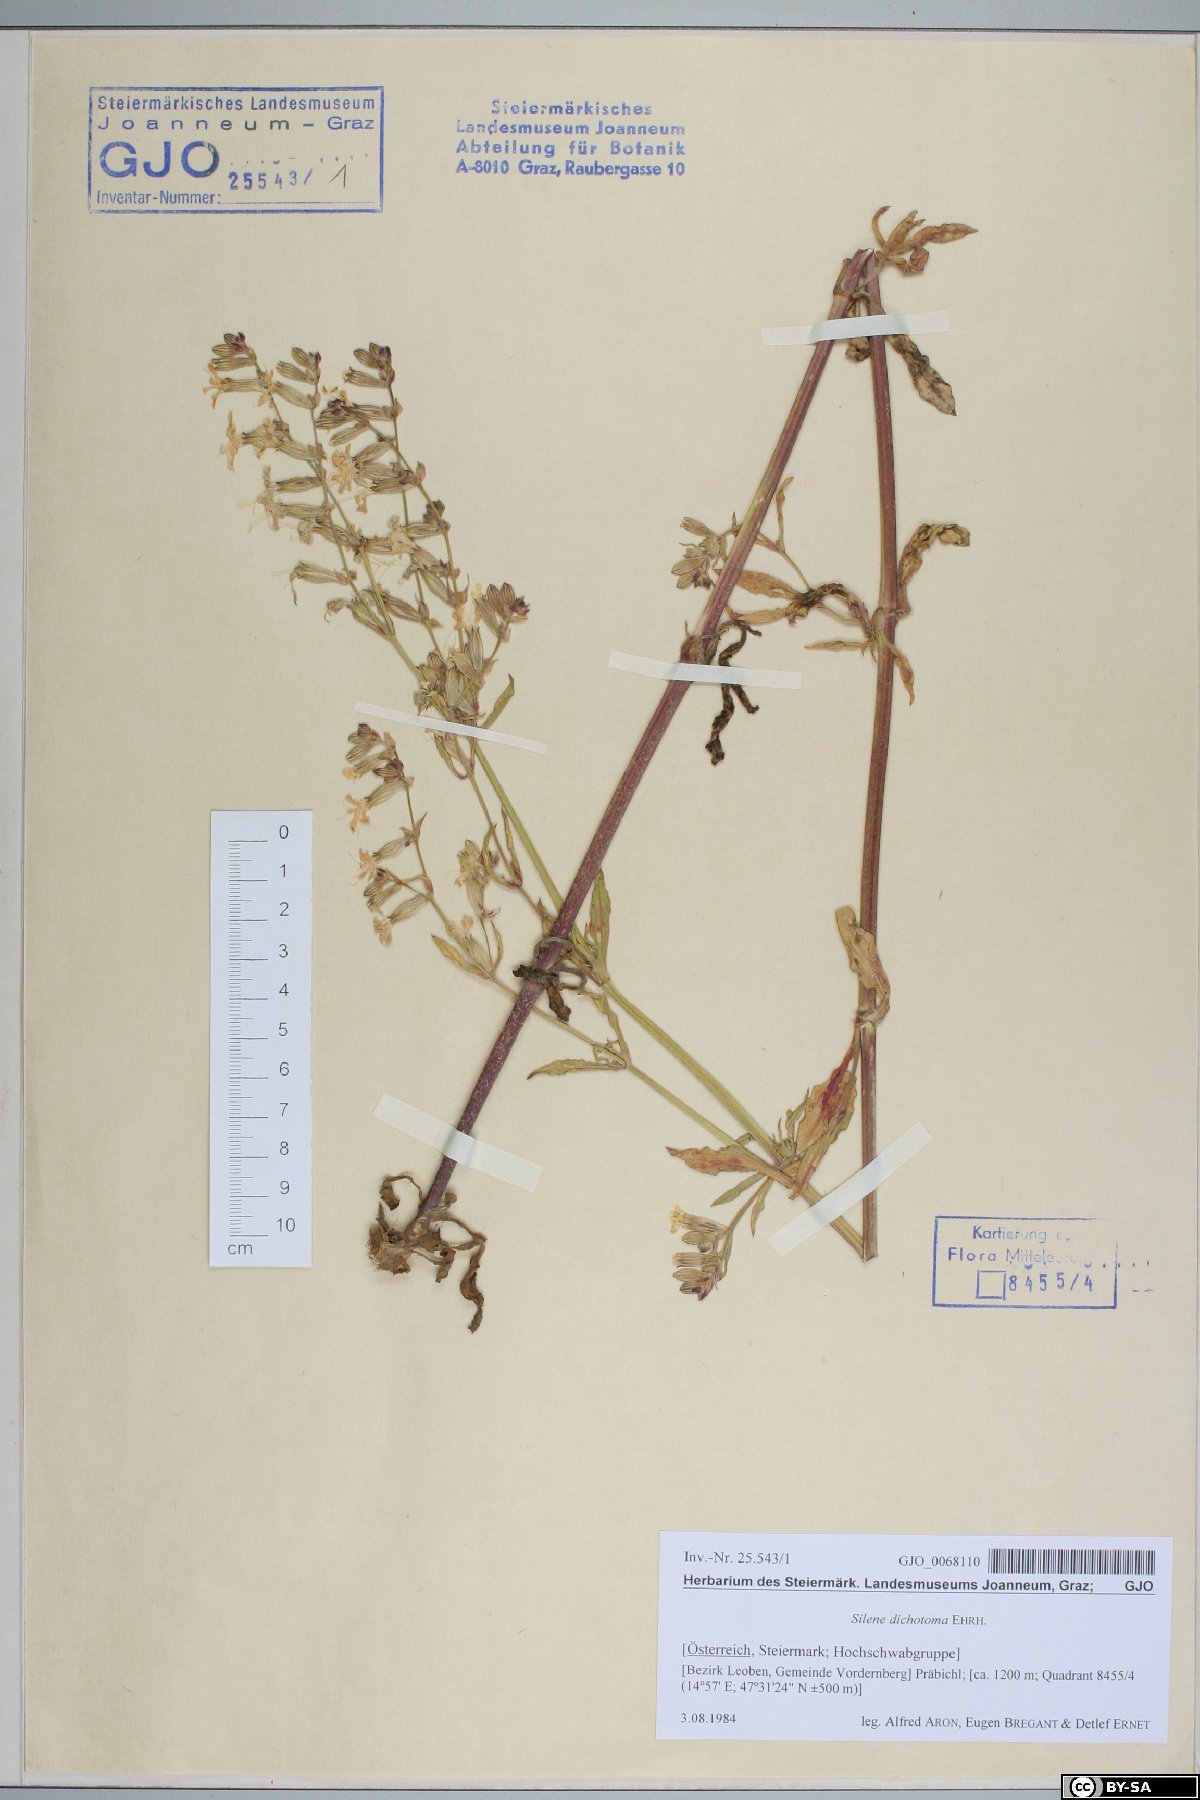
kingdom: Plantae
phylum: Tracheophyta
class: Magnoliopsida
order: Caryophyllales
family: Caryophyllaceae
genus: Silene
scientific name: Silene dichotoma
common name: Forked catchfly
